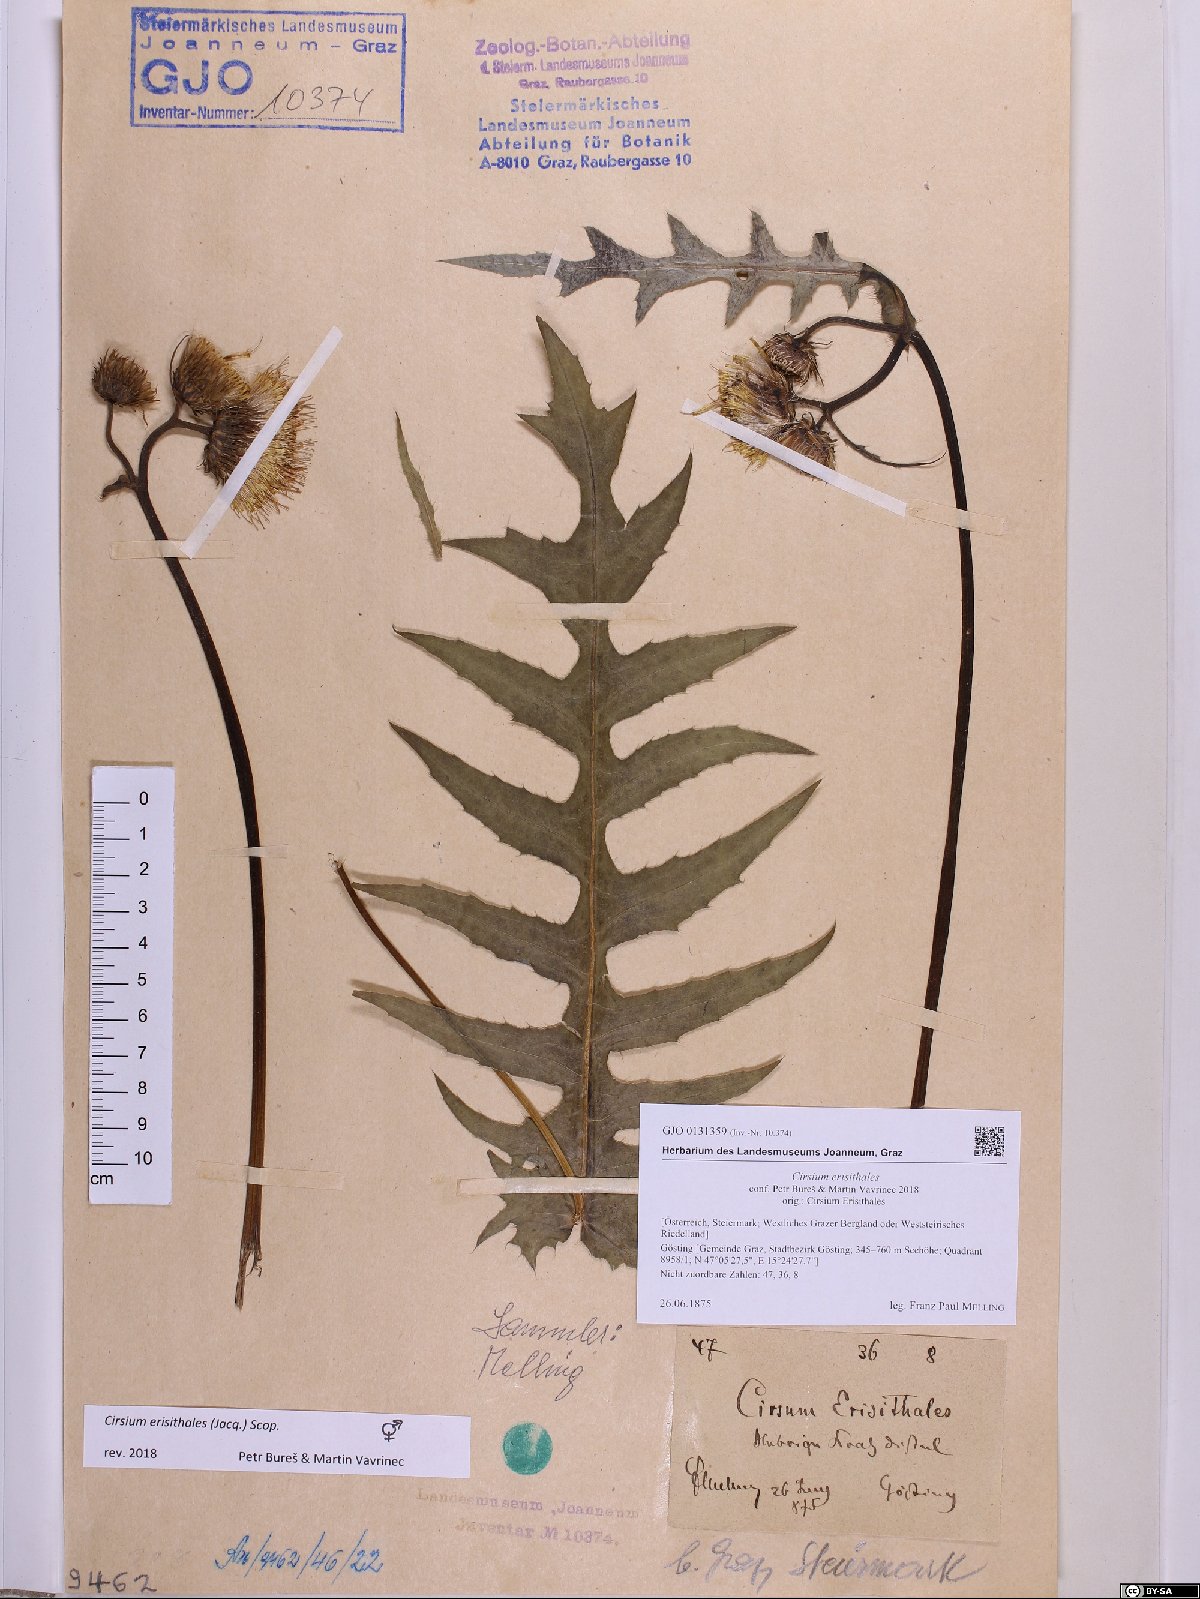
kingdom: Plantae
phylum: Tracheophyta
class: Magnoliopsida
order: Asterales
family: Asteraceae
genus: Cirsium
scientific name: Cirsium erisithales
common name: Yellow thistle
